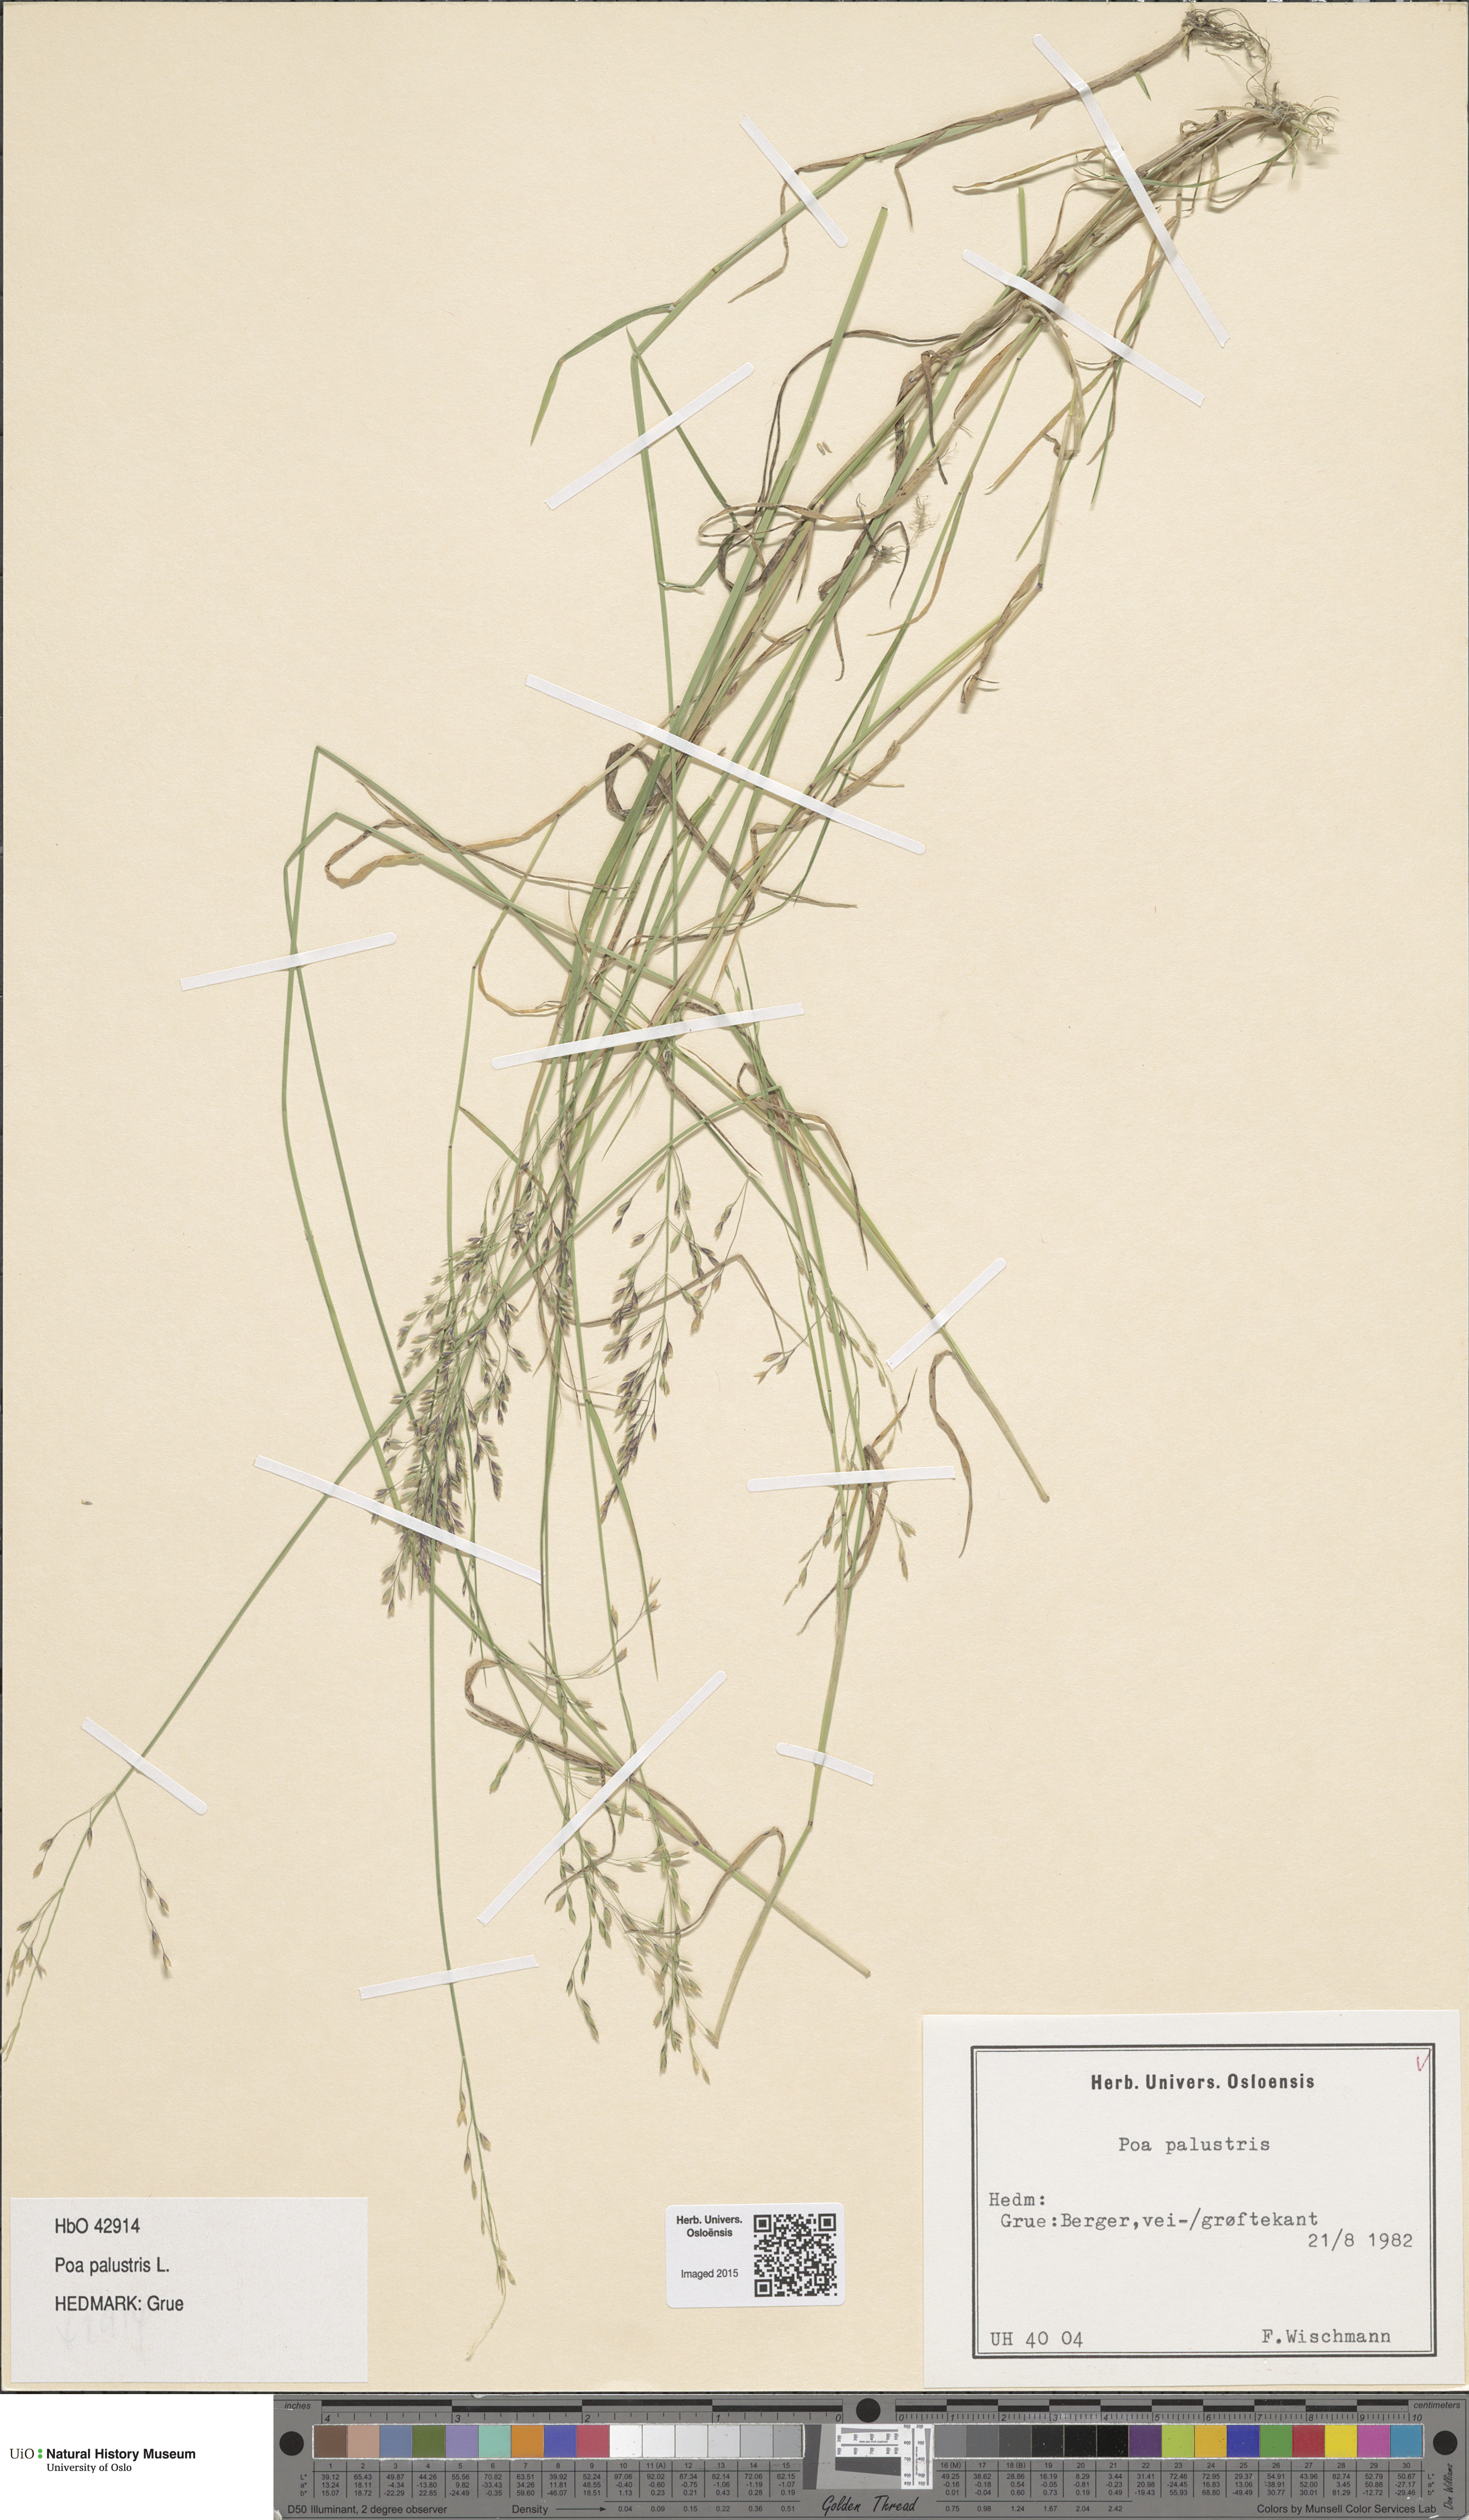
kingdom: Plantae
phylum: Tracheophyta
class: Liliopsida
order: Poales
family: Poaceae
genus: Poa
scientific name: Poa palustris
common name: Swamp meadow-grass
